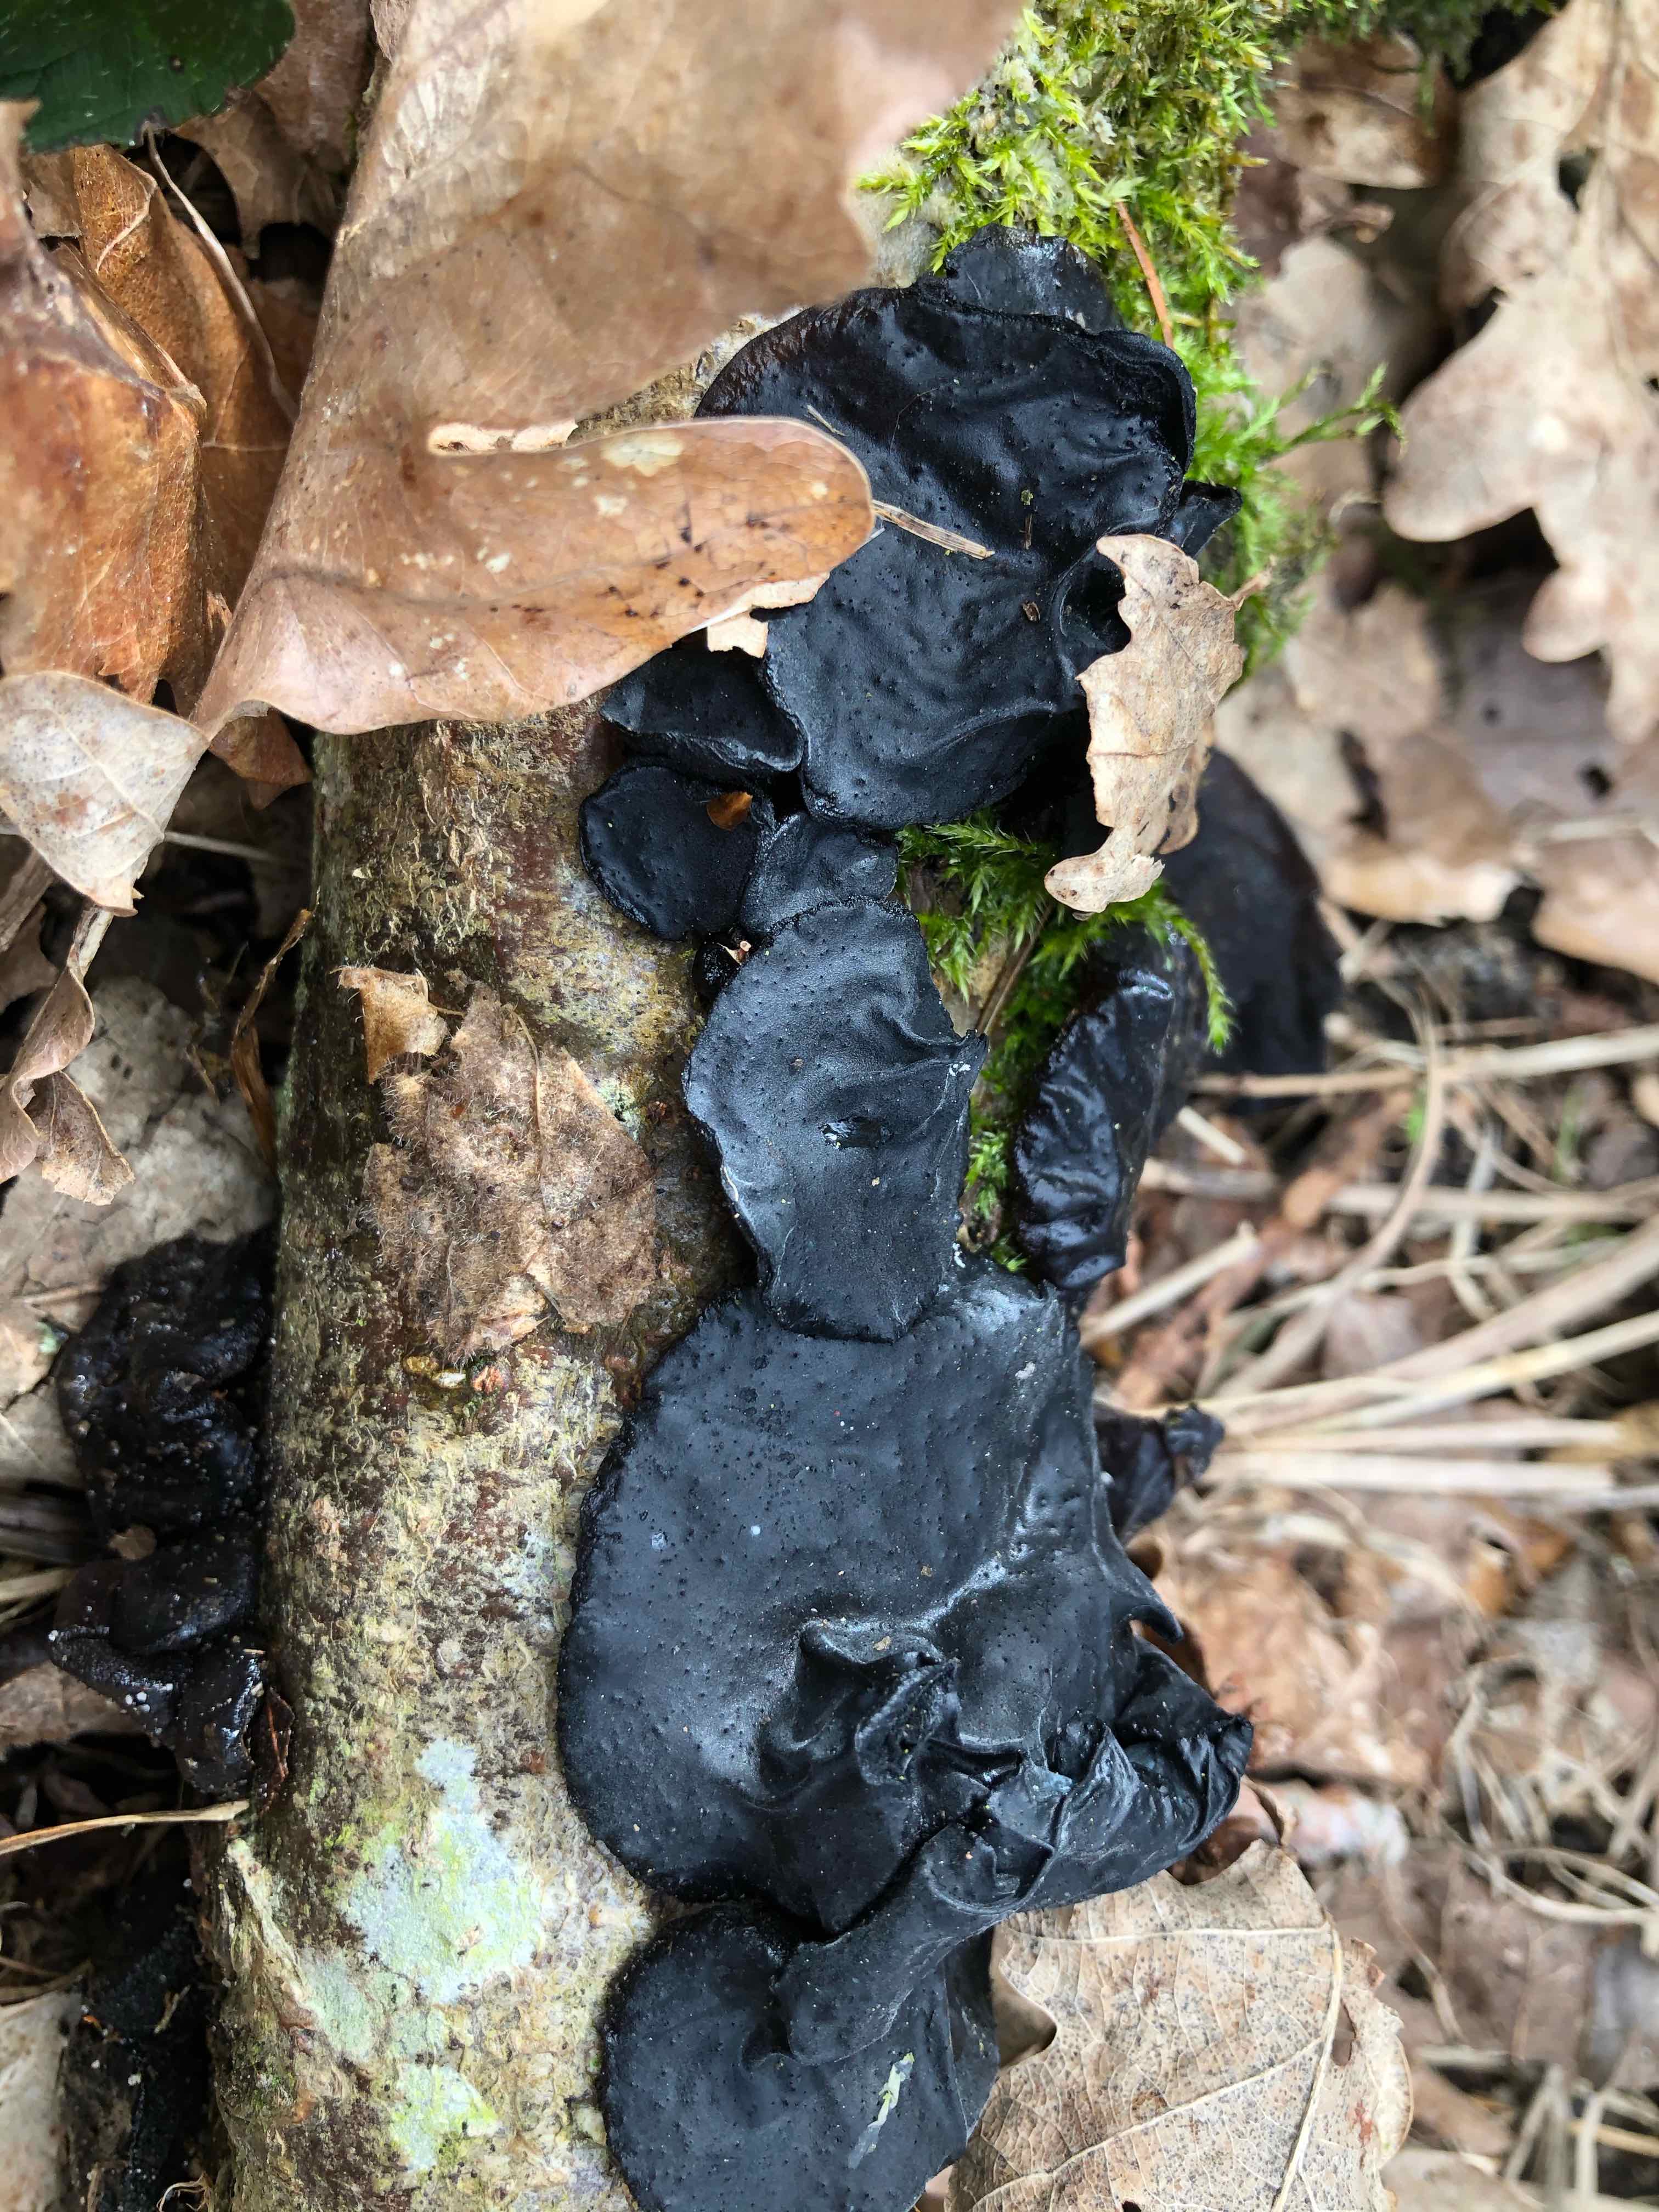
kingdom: Fungi
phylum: Basidiomycota
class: Agaricomycetes
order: Auriculariales
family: Auriculariaceae
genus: Exidia
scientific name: Exidia glandulosa
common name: ege-bævretop
